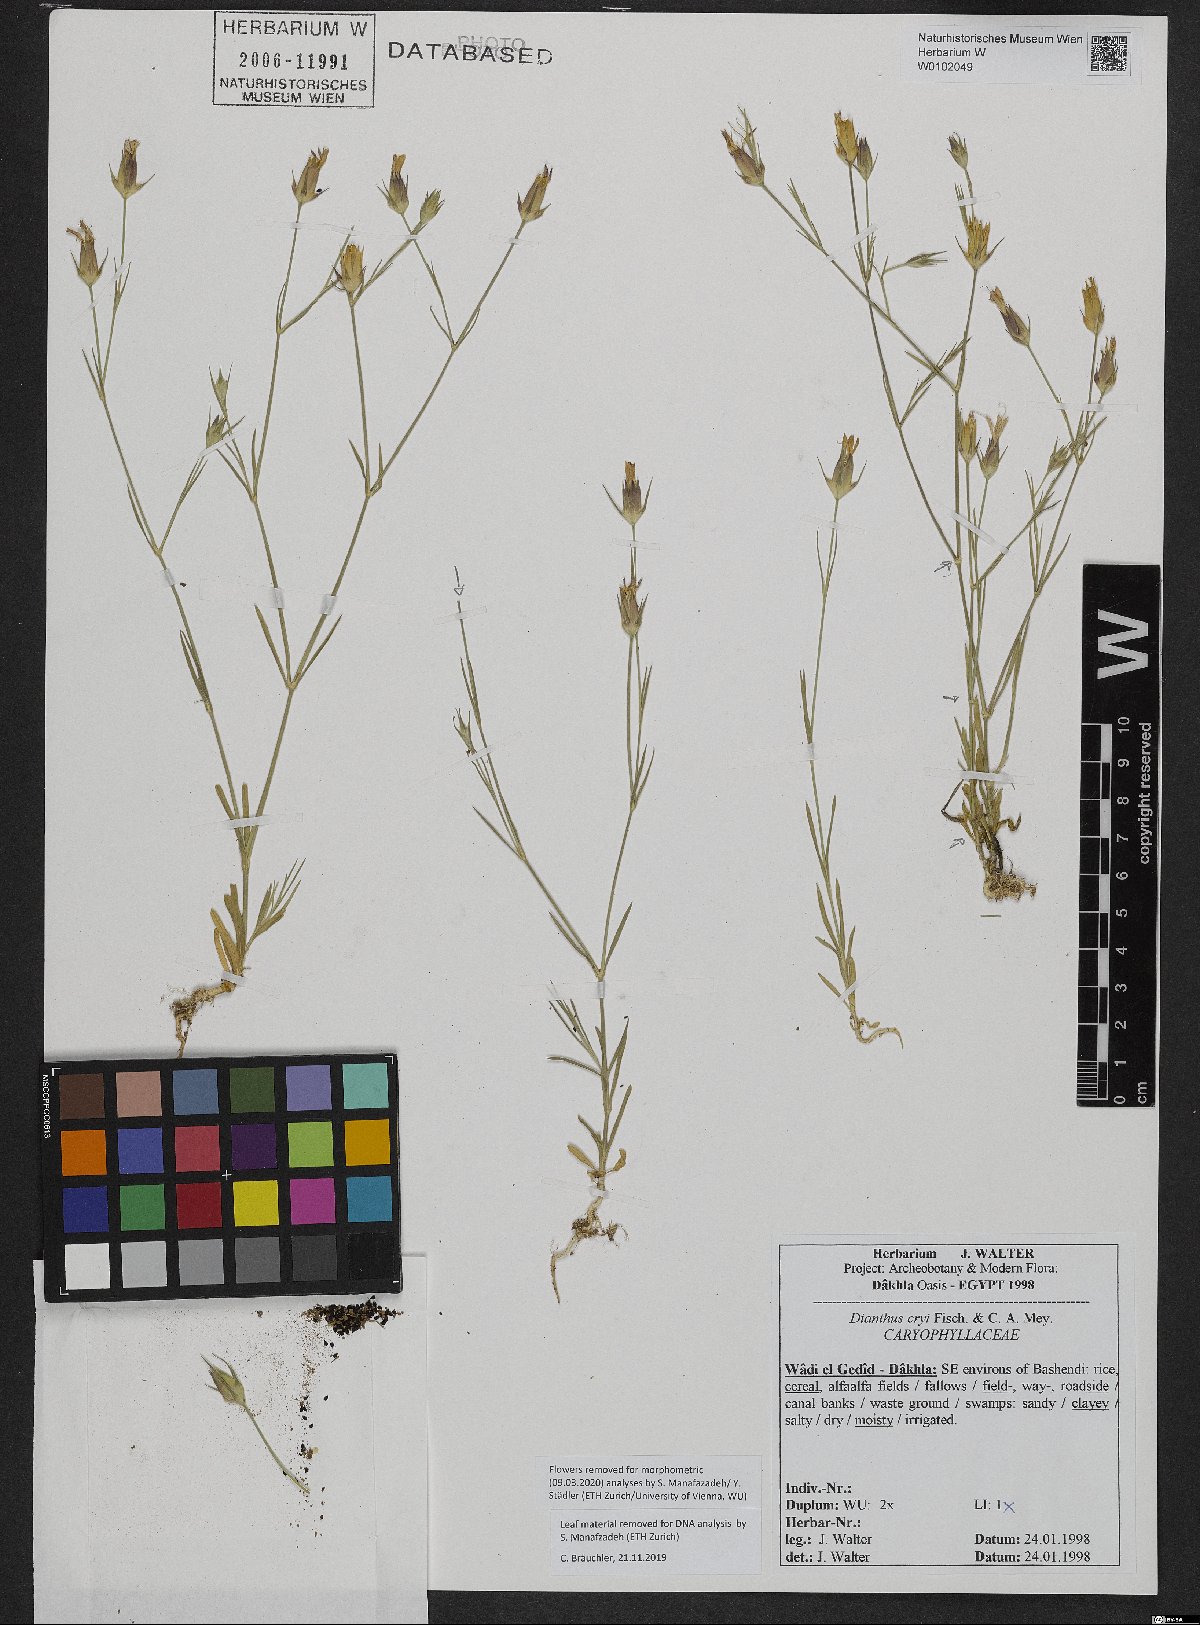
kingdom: Plantae
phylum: Tracheophyta
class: Magnoliopsida
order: Caryophyllales
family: Caryophyllaceae
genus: Dianthus
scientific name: Dianthus cyri
